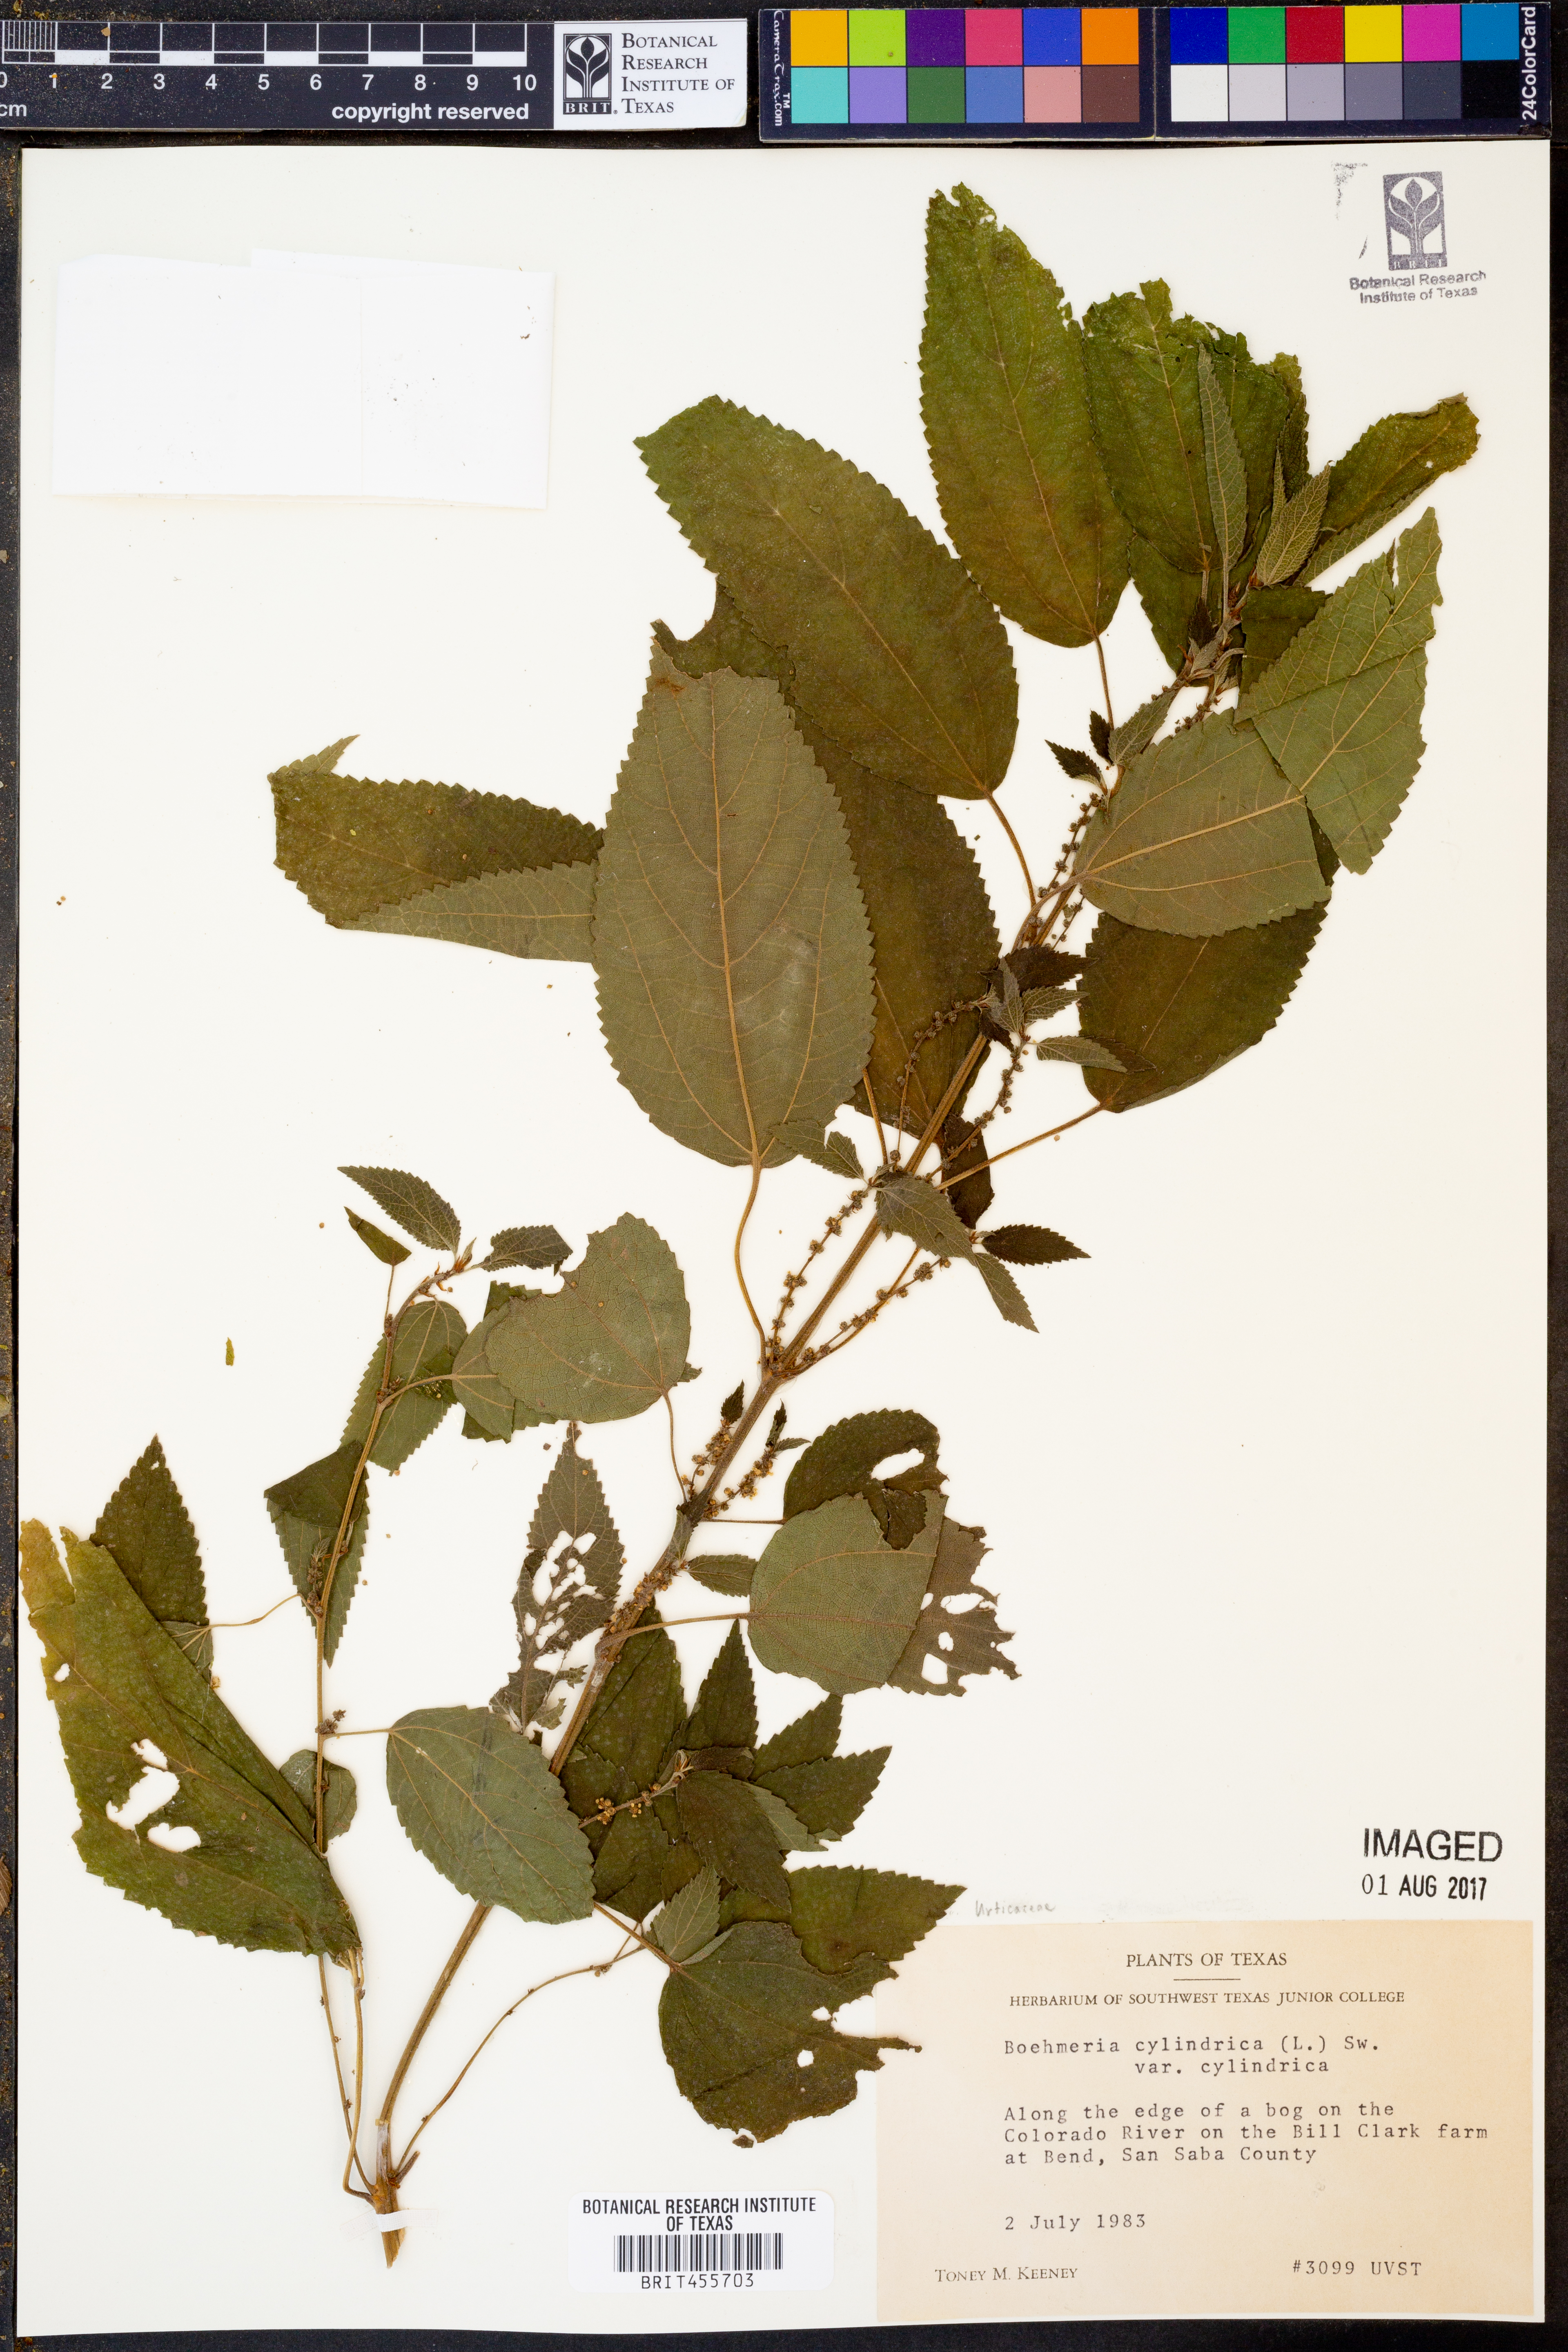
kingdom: Plantae
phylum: Tracheophyta
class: Magnoliopsida
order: Rosales
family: Urticaceae
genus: Boehmeria
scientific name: Boehmeria cylindrica
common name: Bog-hemp
